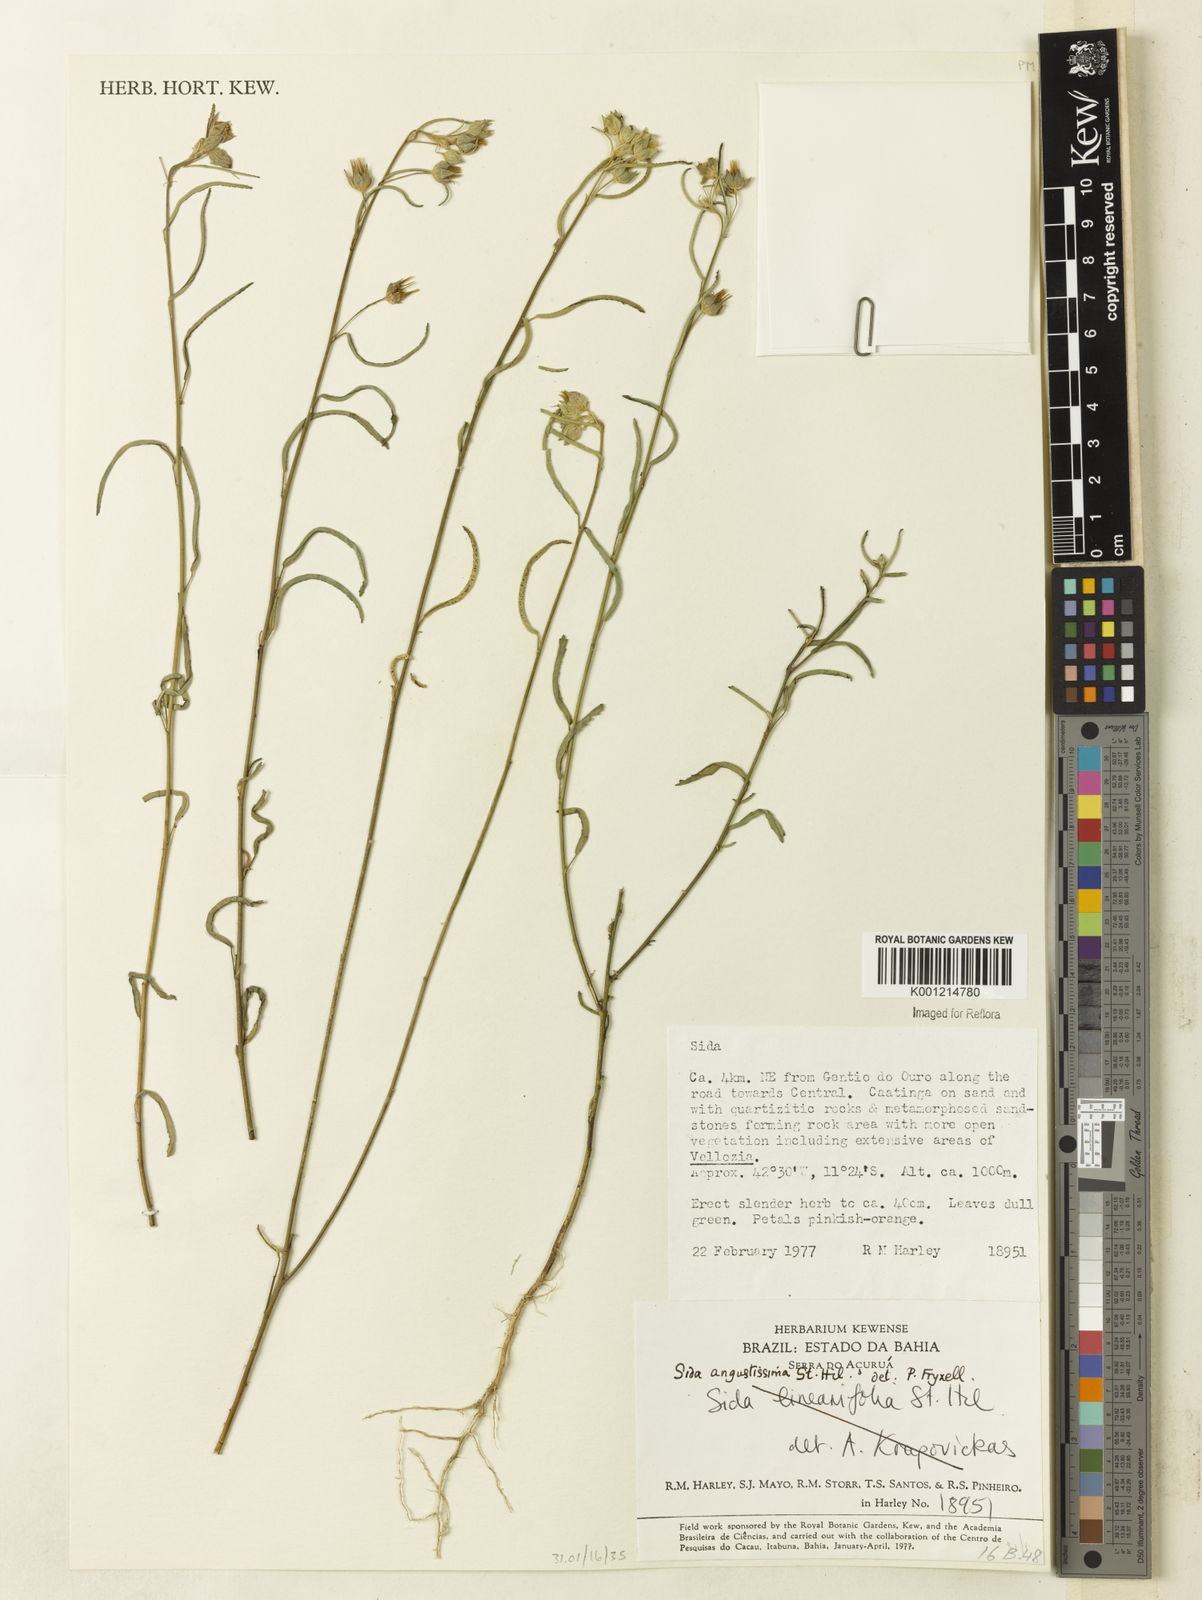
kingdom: Plantae
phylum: Tracheophyta
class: Magnoliopsida
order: Malvales
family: Malvaceae
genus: Sida
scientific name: Sida angustissima
